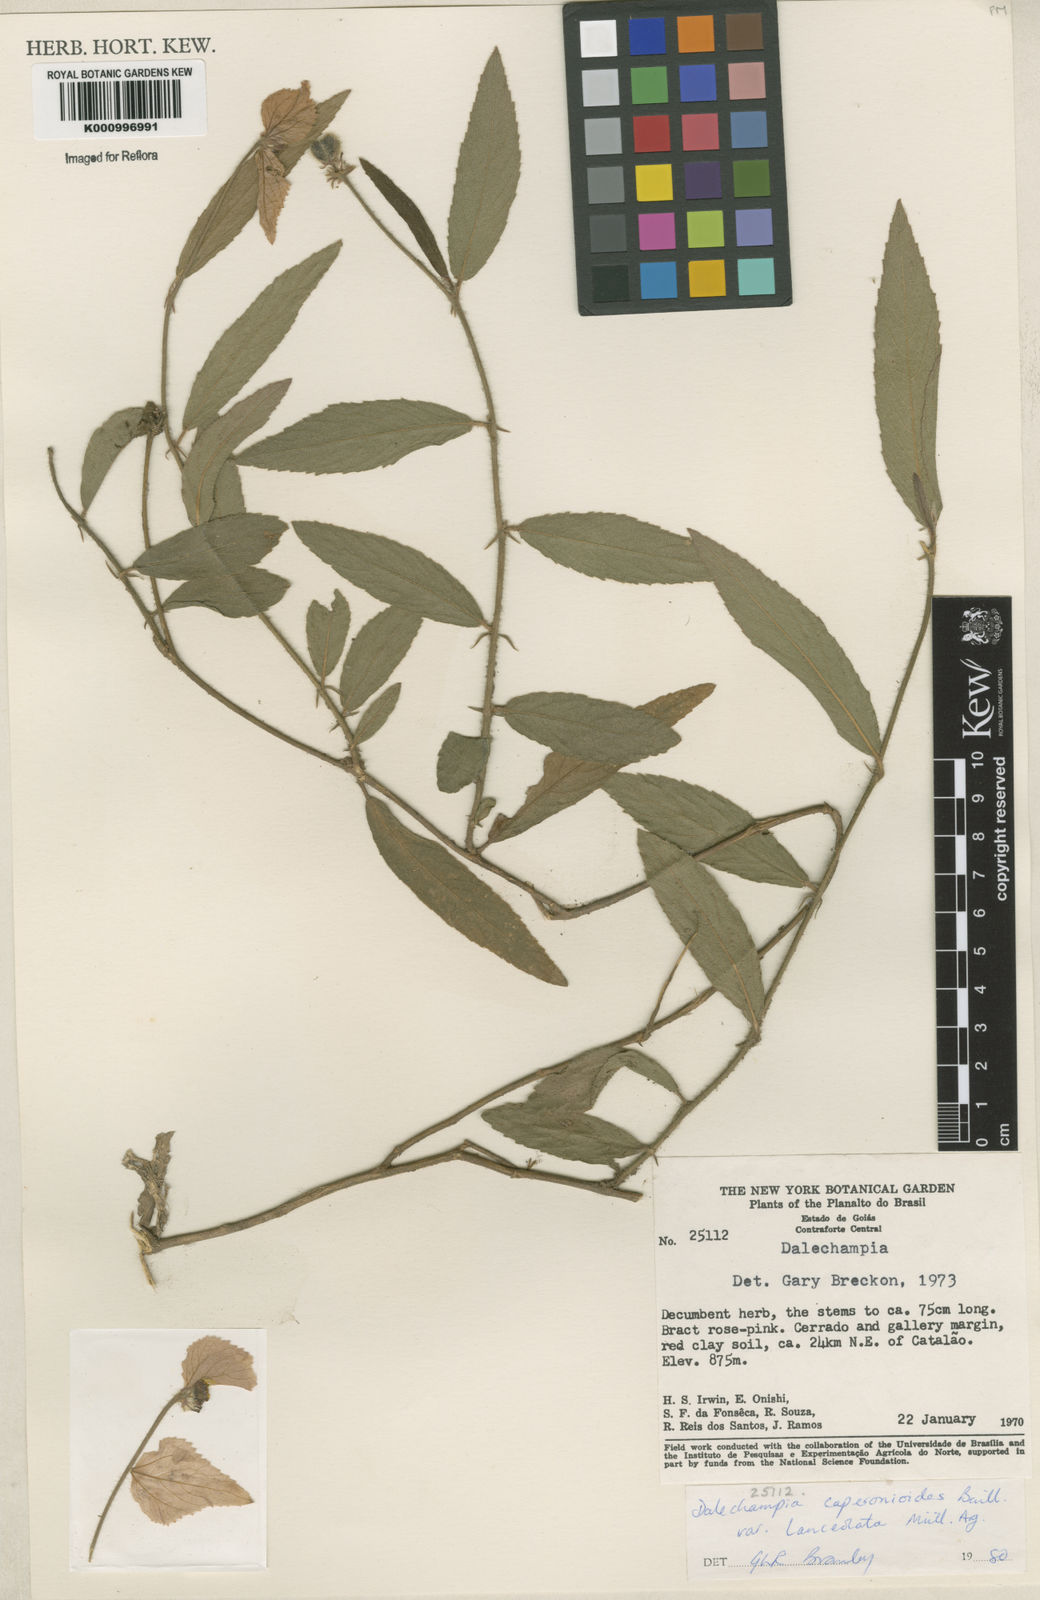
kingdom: Plantae
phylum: Tracheophyta
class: Magnoliopsida
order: Malpighiales
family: Euphorbiaceae
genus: Dalechampia
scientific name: Dalechampia caperonioides
